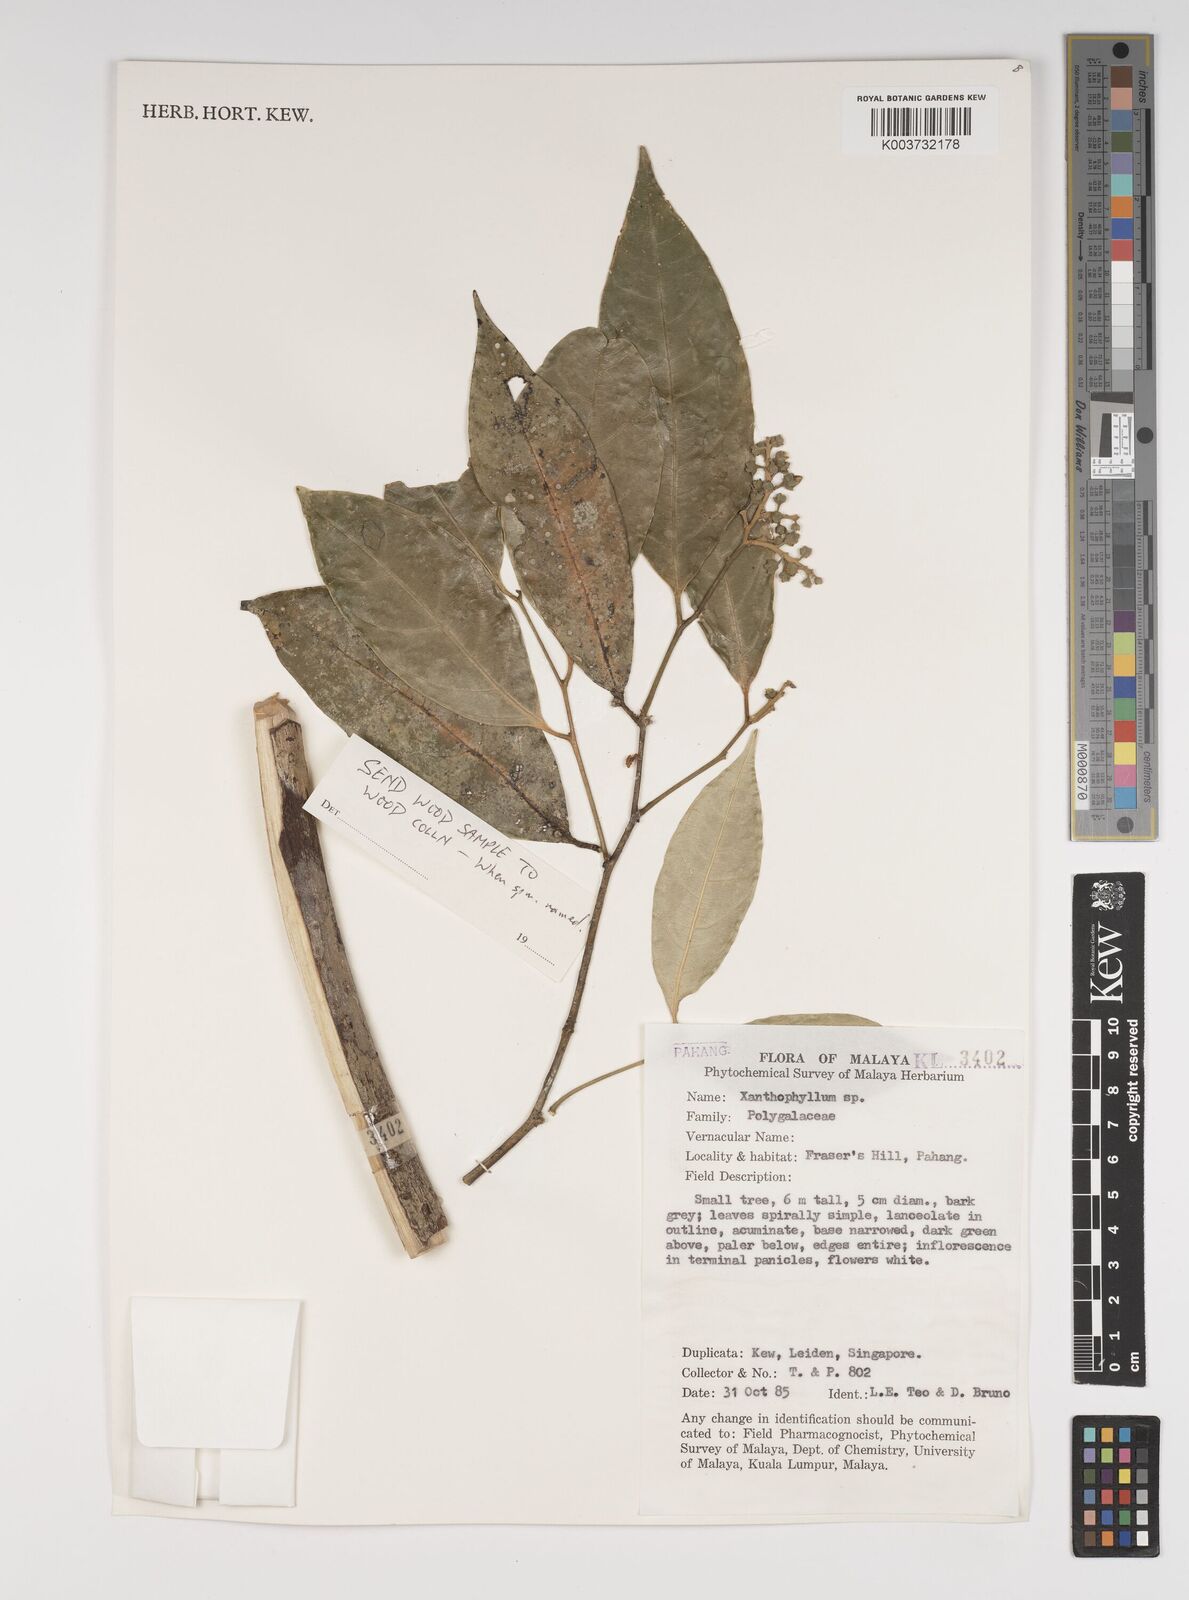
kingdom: Plantae
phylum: Tracheophyta
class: Magnoliopsida
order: Fabales
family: Polygalaceae
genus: Xanthophyllum
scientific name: Xanthophyllum
